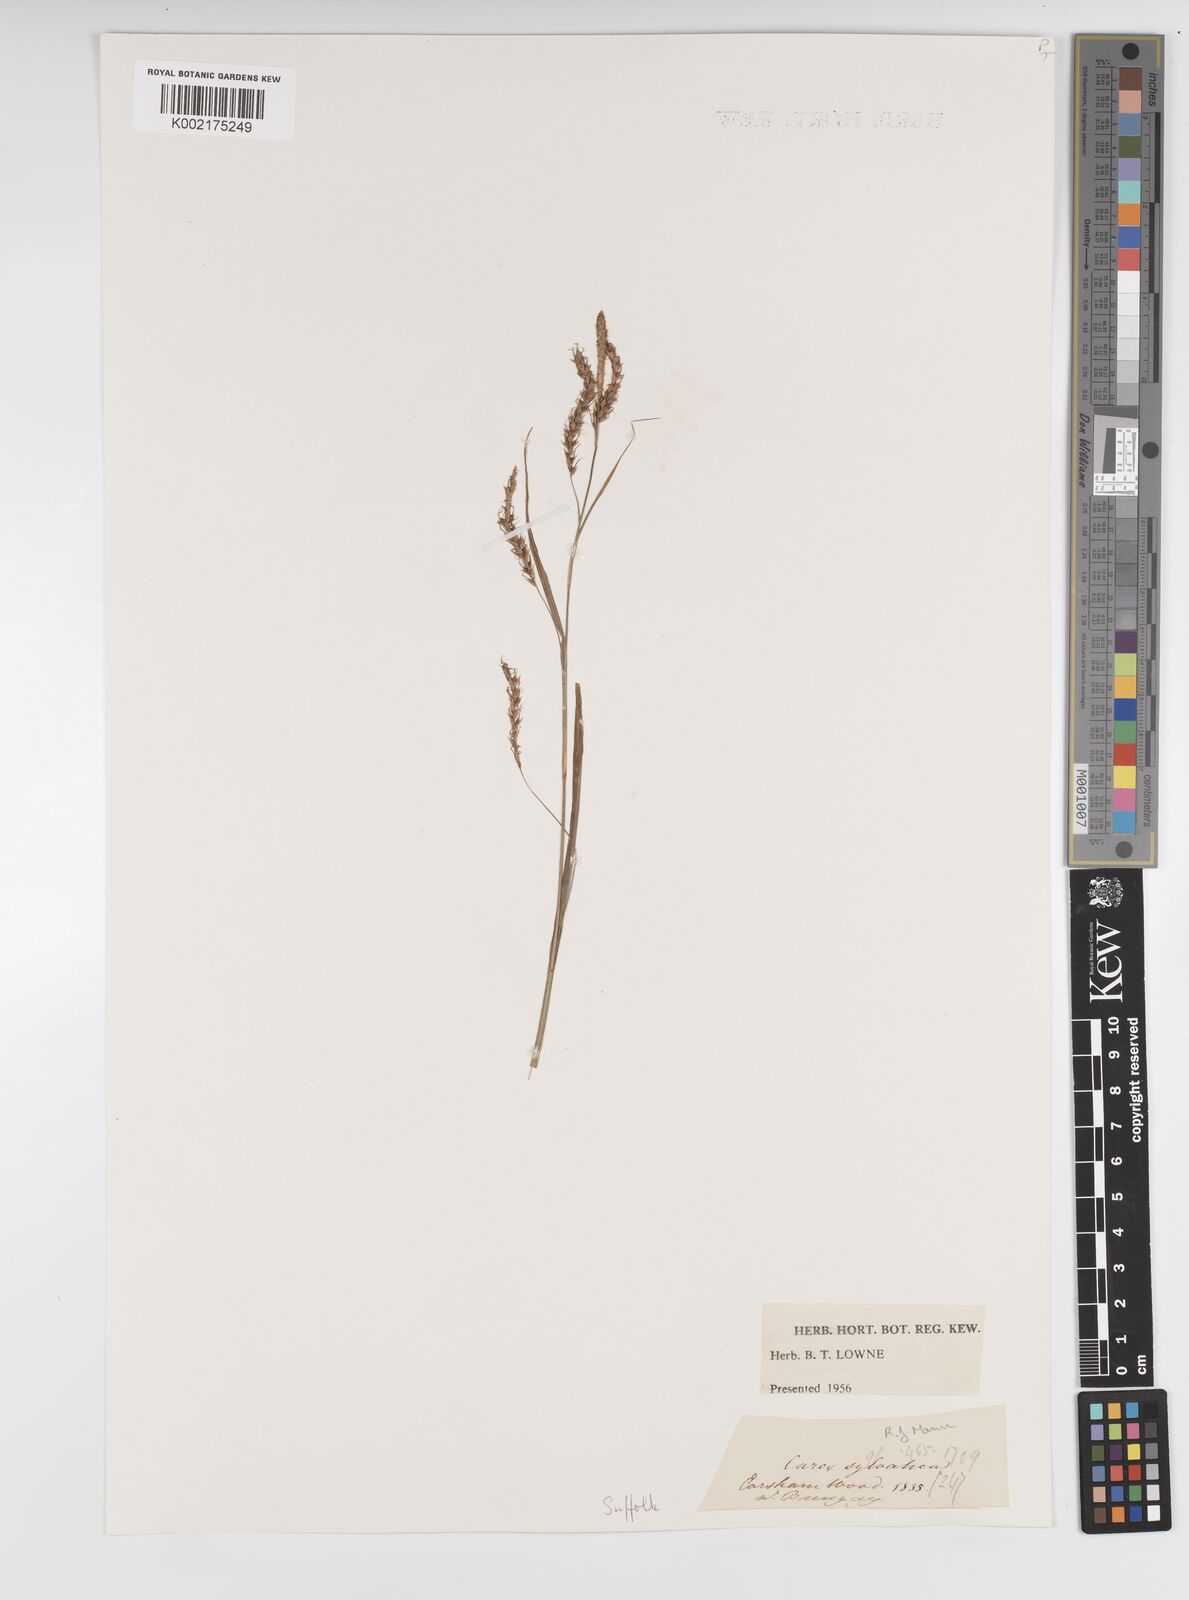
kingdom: Plantae
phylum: Tracheophyta
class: Liliopsida
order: Poales
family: Cyperaceae
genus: Carex
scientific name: Carex sylvatica
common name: Wood-sedge
